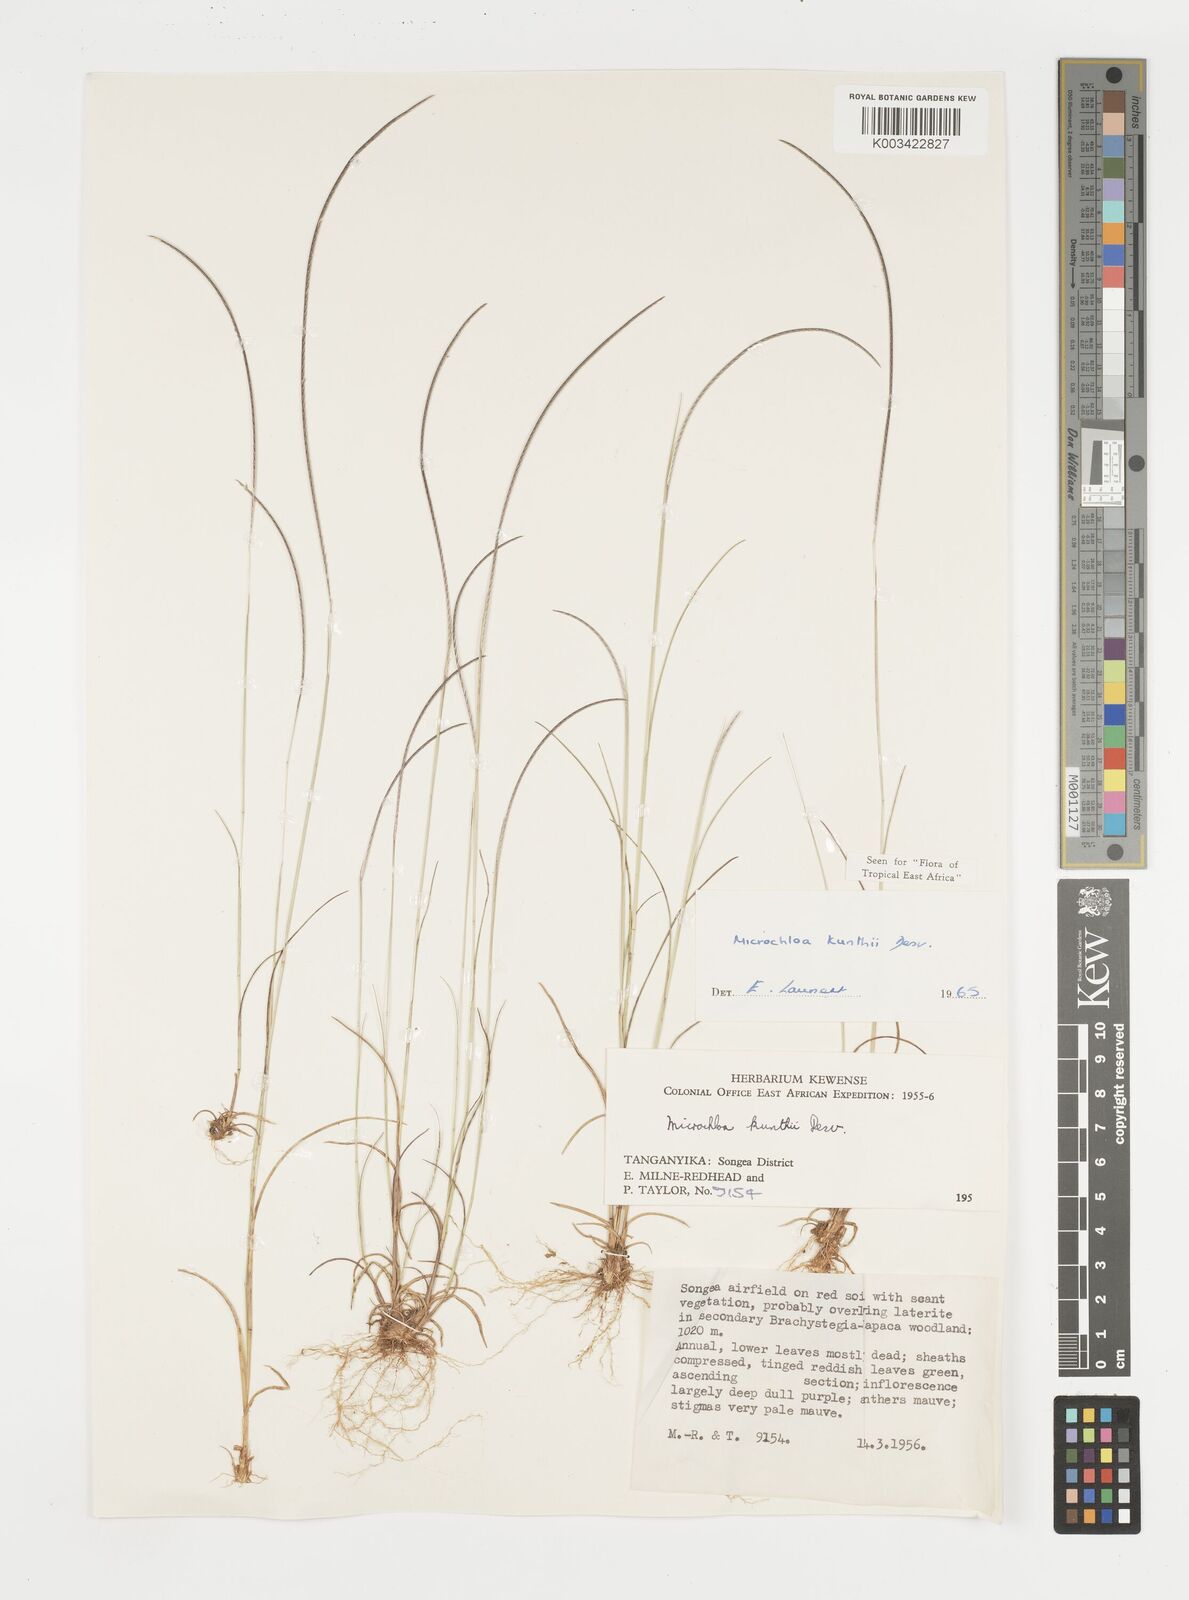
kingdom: Plantae
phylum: Tracheophyta
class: Liliopsida
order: Poales
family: Poaceae
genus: Microchloa
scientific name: Microchloa kunthii
